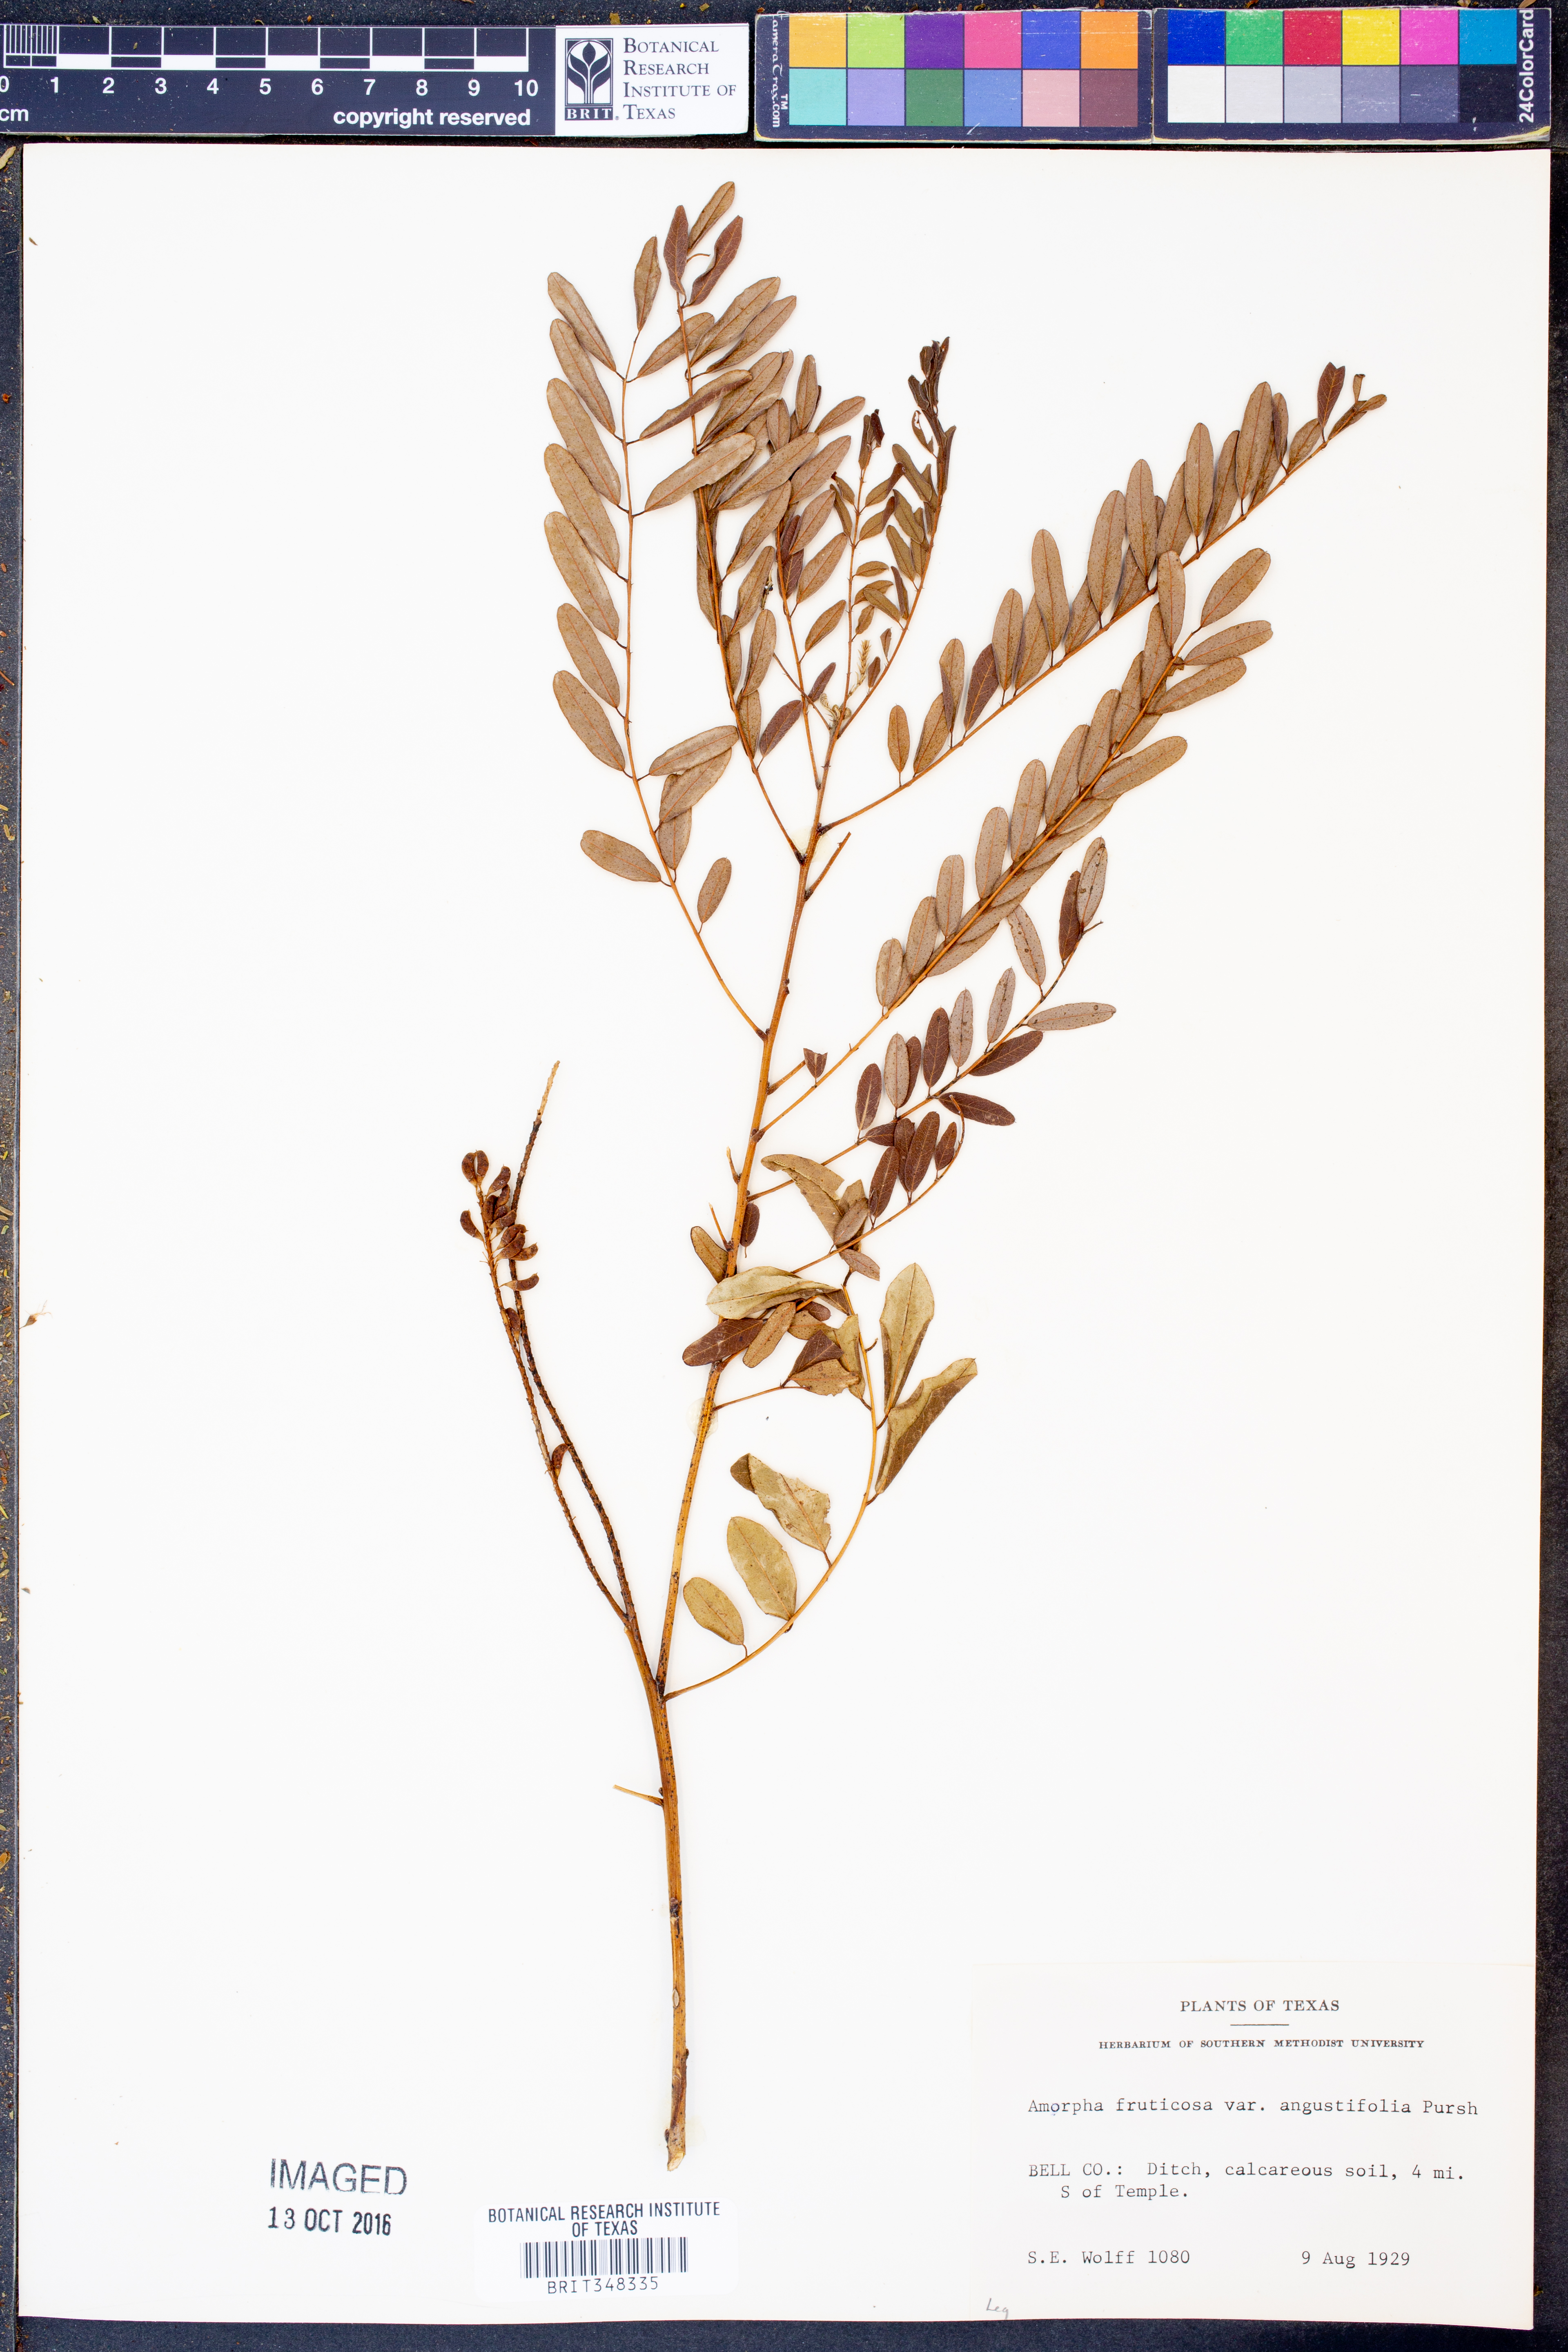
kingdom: Plantae
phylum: Tracheophyta
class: Magnoliopsida
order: Fabales
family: Fabaceae
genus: Amorpha
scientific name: Amorpha fruticosa
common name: False indigo
